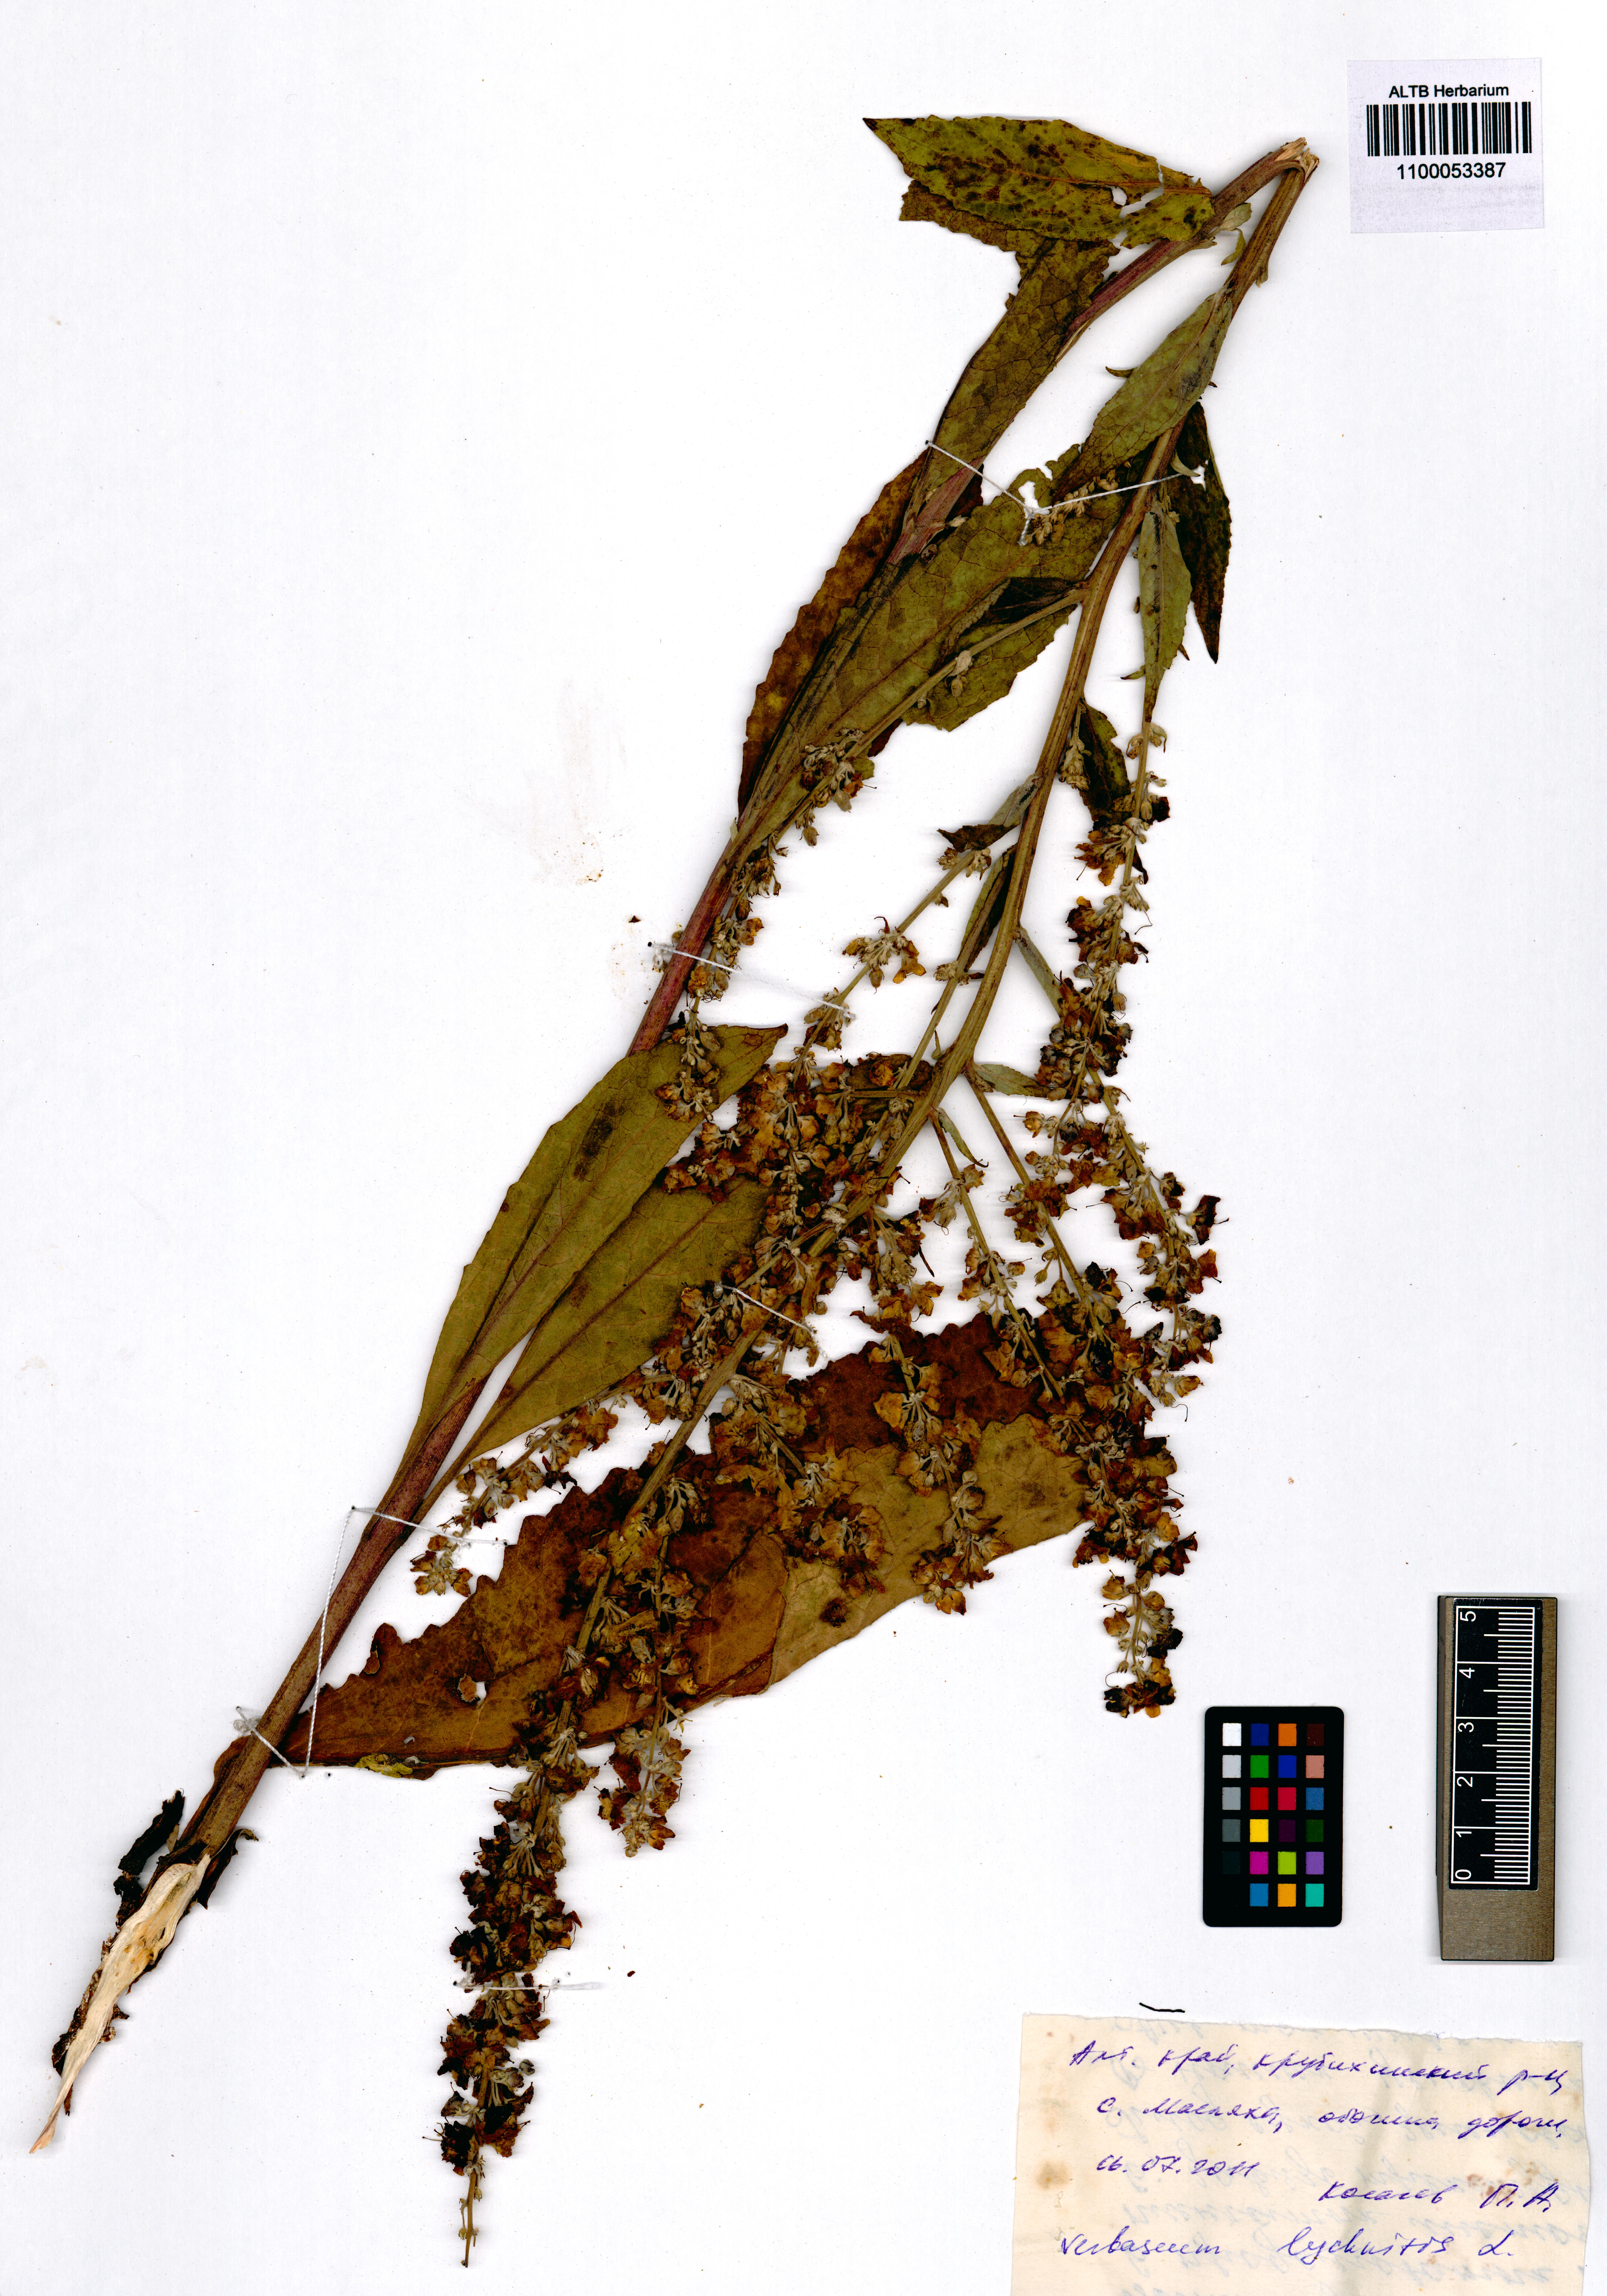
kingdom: Plantae
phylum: Tracheophyta
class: Magnoliopsida
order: Lamiales
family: Scrophulariaceae
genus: Verbascum
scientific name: Verbascum lychnitis
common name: White mullein
